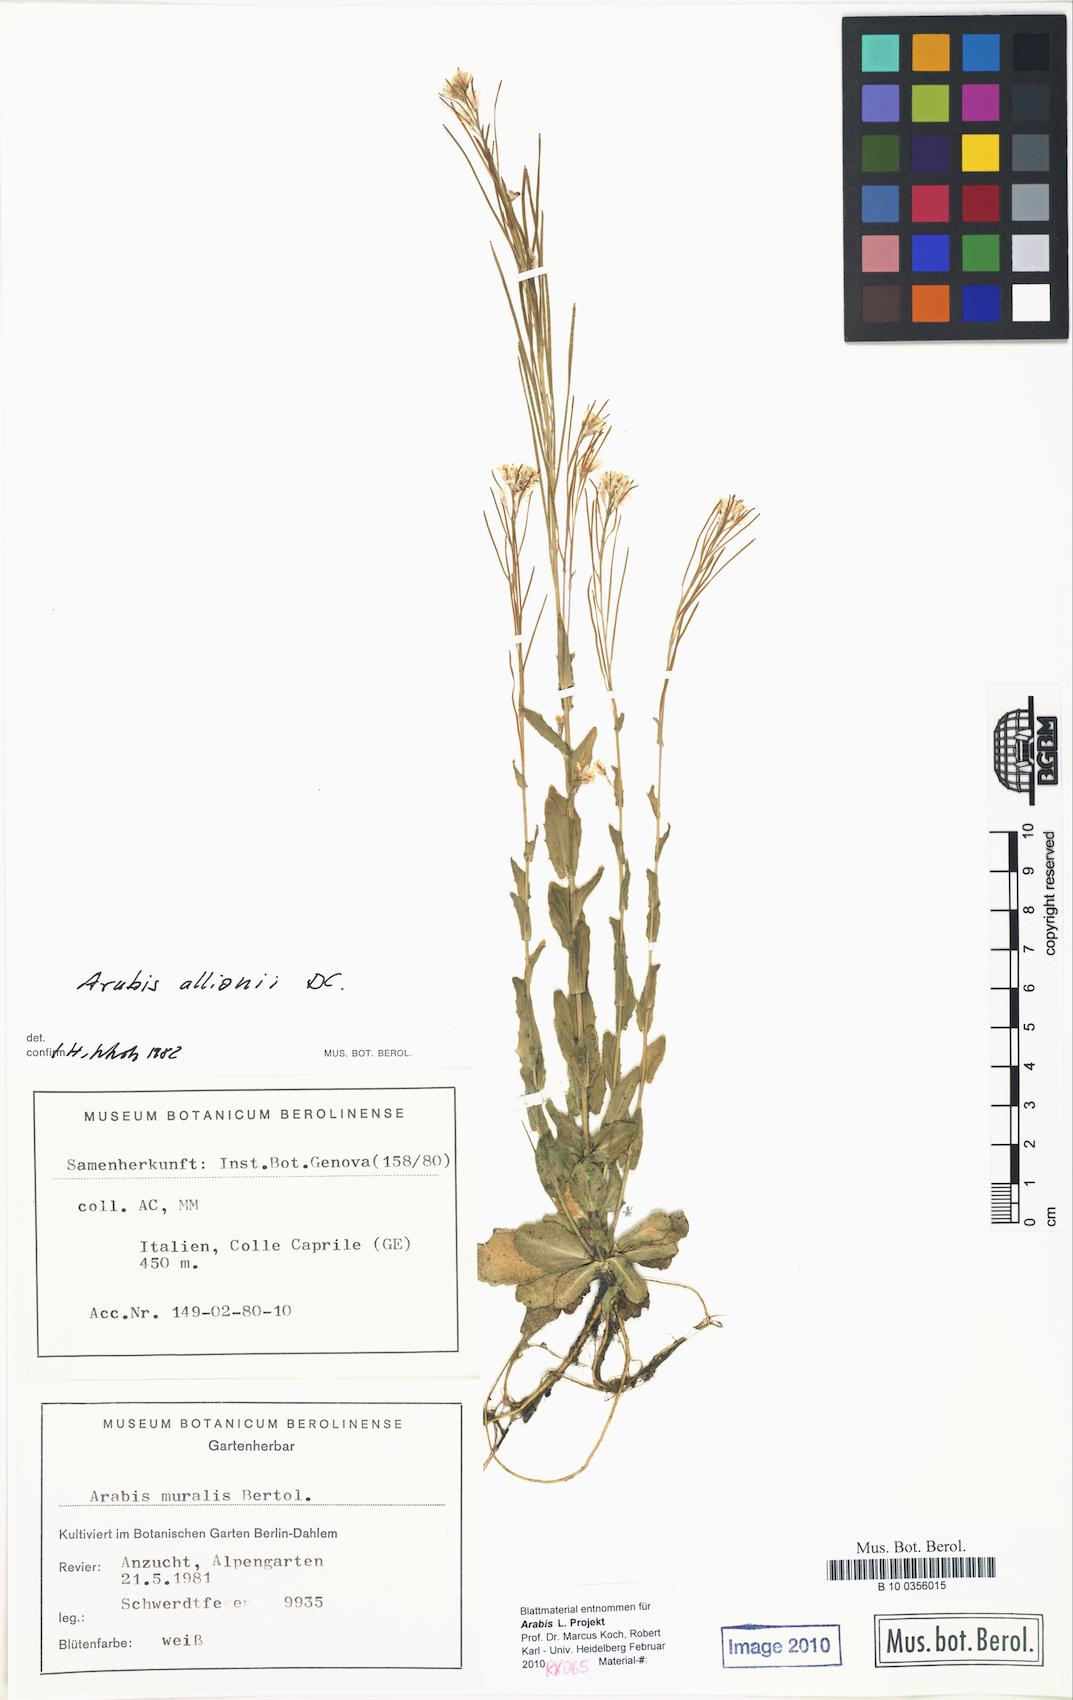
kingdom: Plantae
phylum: Tracheophyta
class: Magnoliopsida
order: Brassicales
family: Brassicaceae
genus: Arabis
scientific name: Arabis allionii
